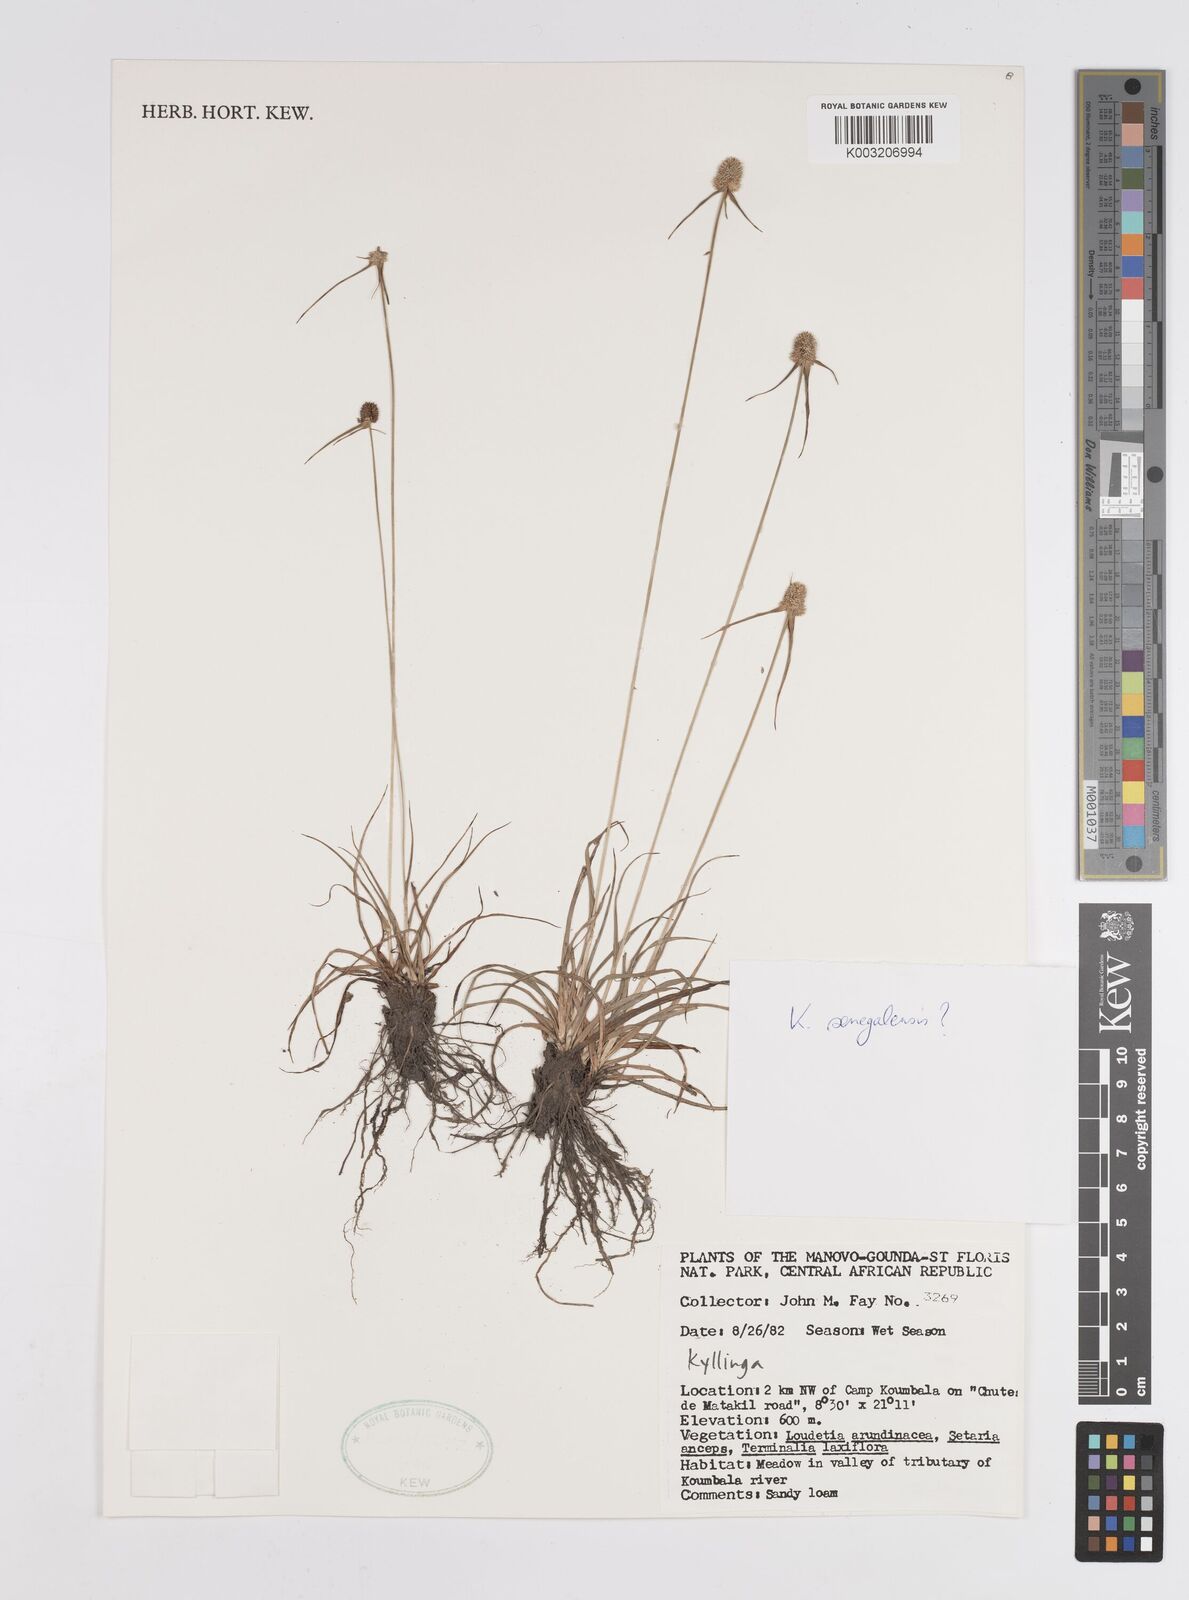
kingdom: Plantae
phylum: Tracheophyta
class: Liliopsida
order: Poales
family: Cyperaceae
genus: Cyperus
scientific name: Cyperus
